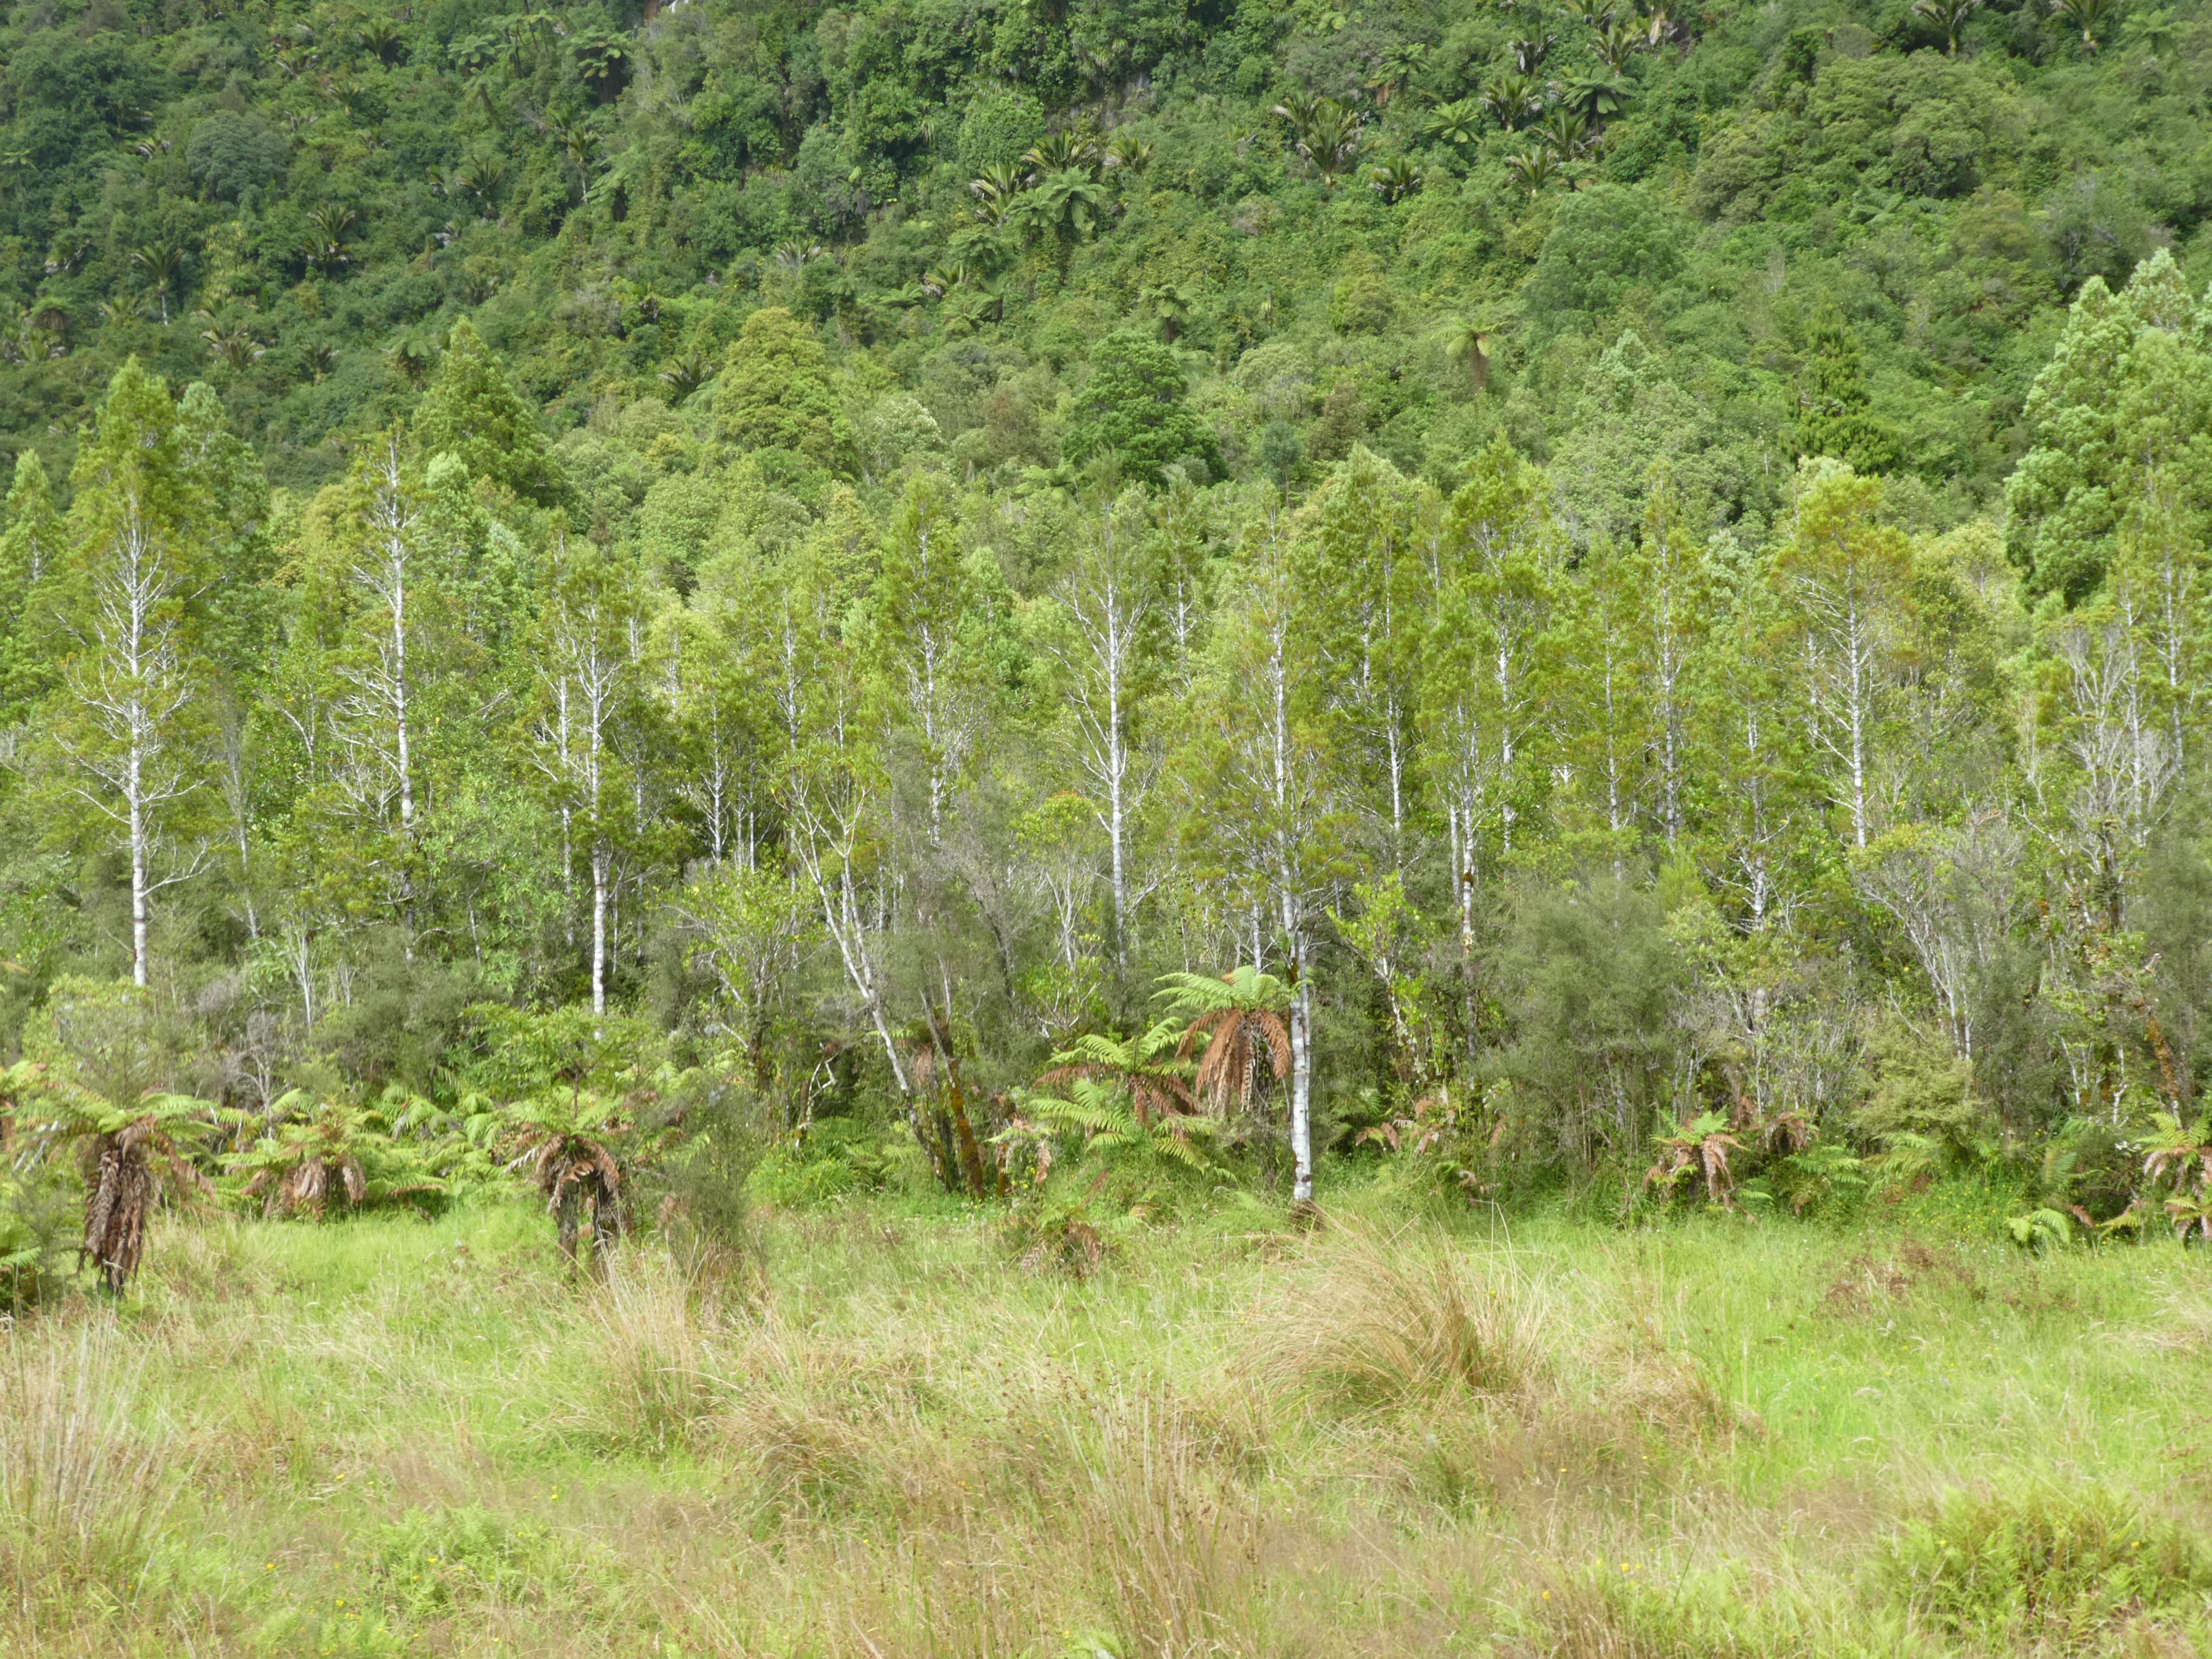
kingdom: Plantae
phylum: Tracheophyta
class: Liliopsida
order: Poales
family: Juncaceae
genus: Juncus
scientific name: Juncus canadensis
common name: Canada rush
